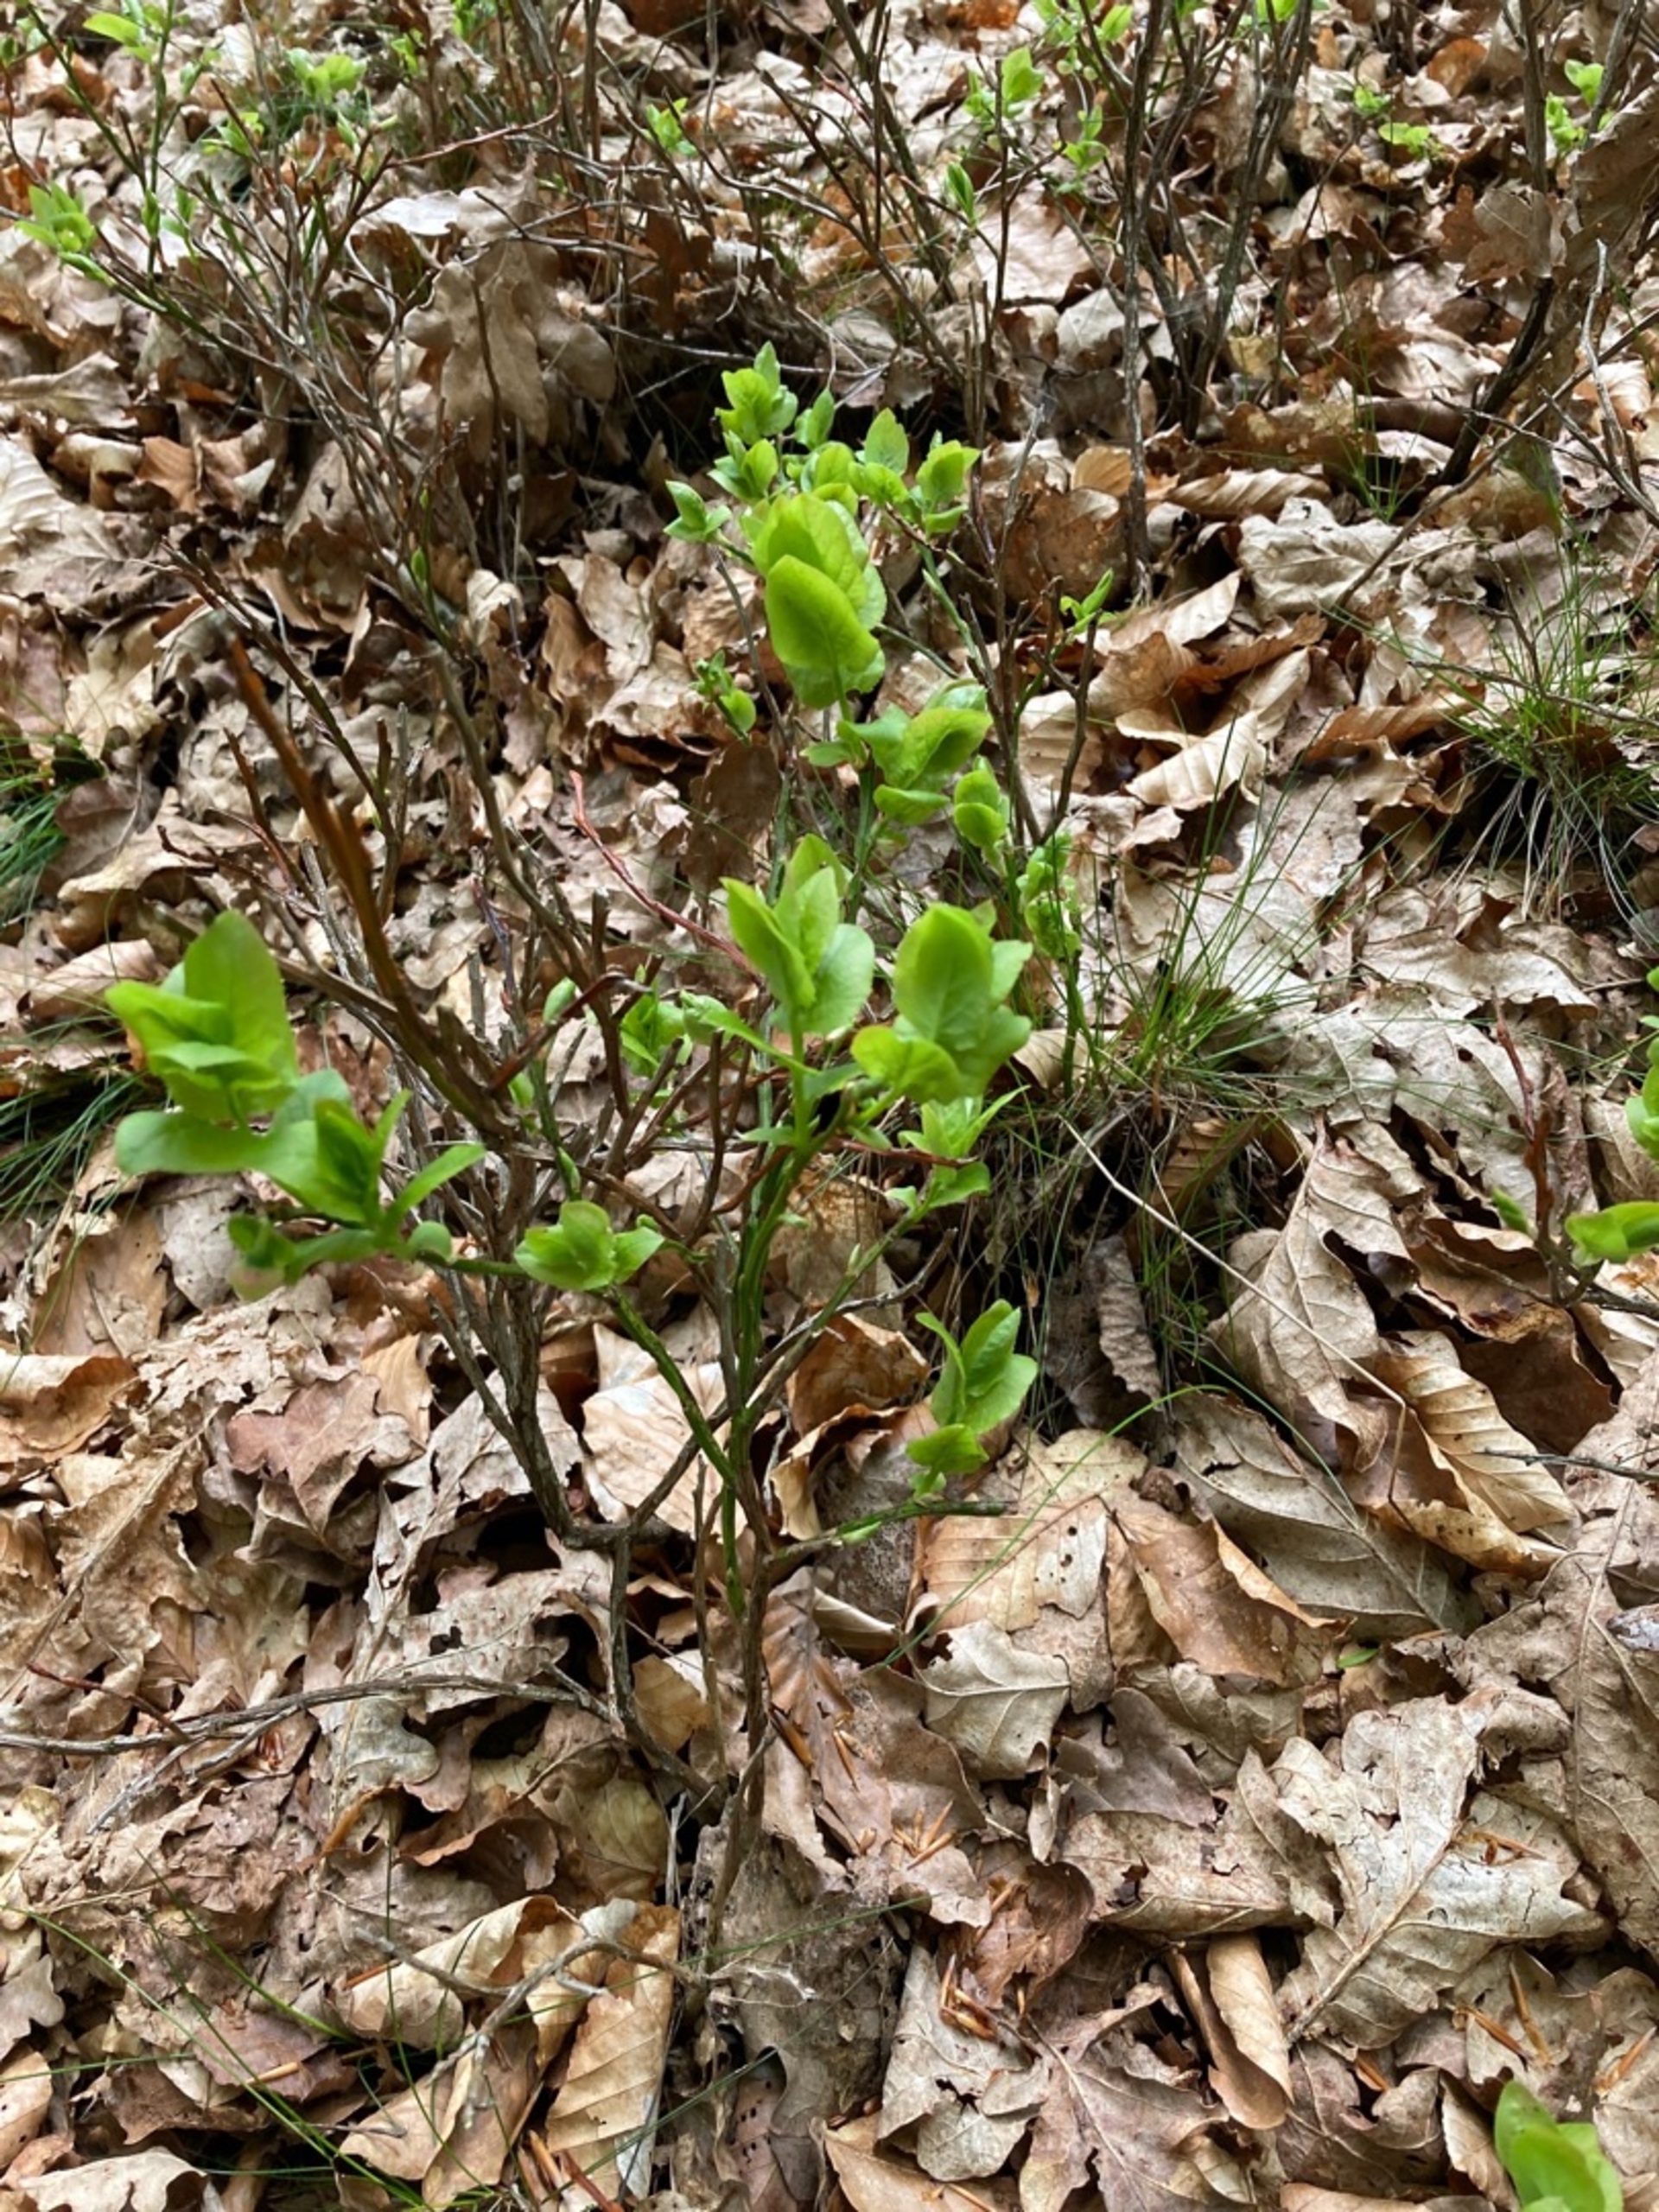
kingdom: Plantae
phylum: Tracheophyta
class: Magnoliopsida
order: Ericales
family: Ericaceae
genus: Vaccinium
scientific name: Vaccinium myrtillus
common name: Blåbær
